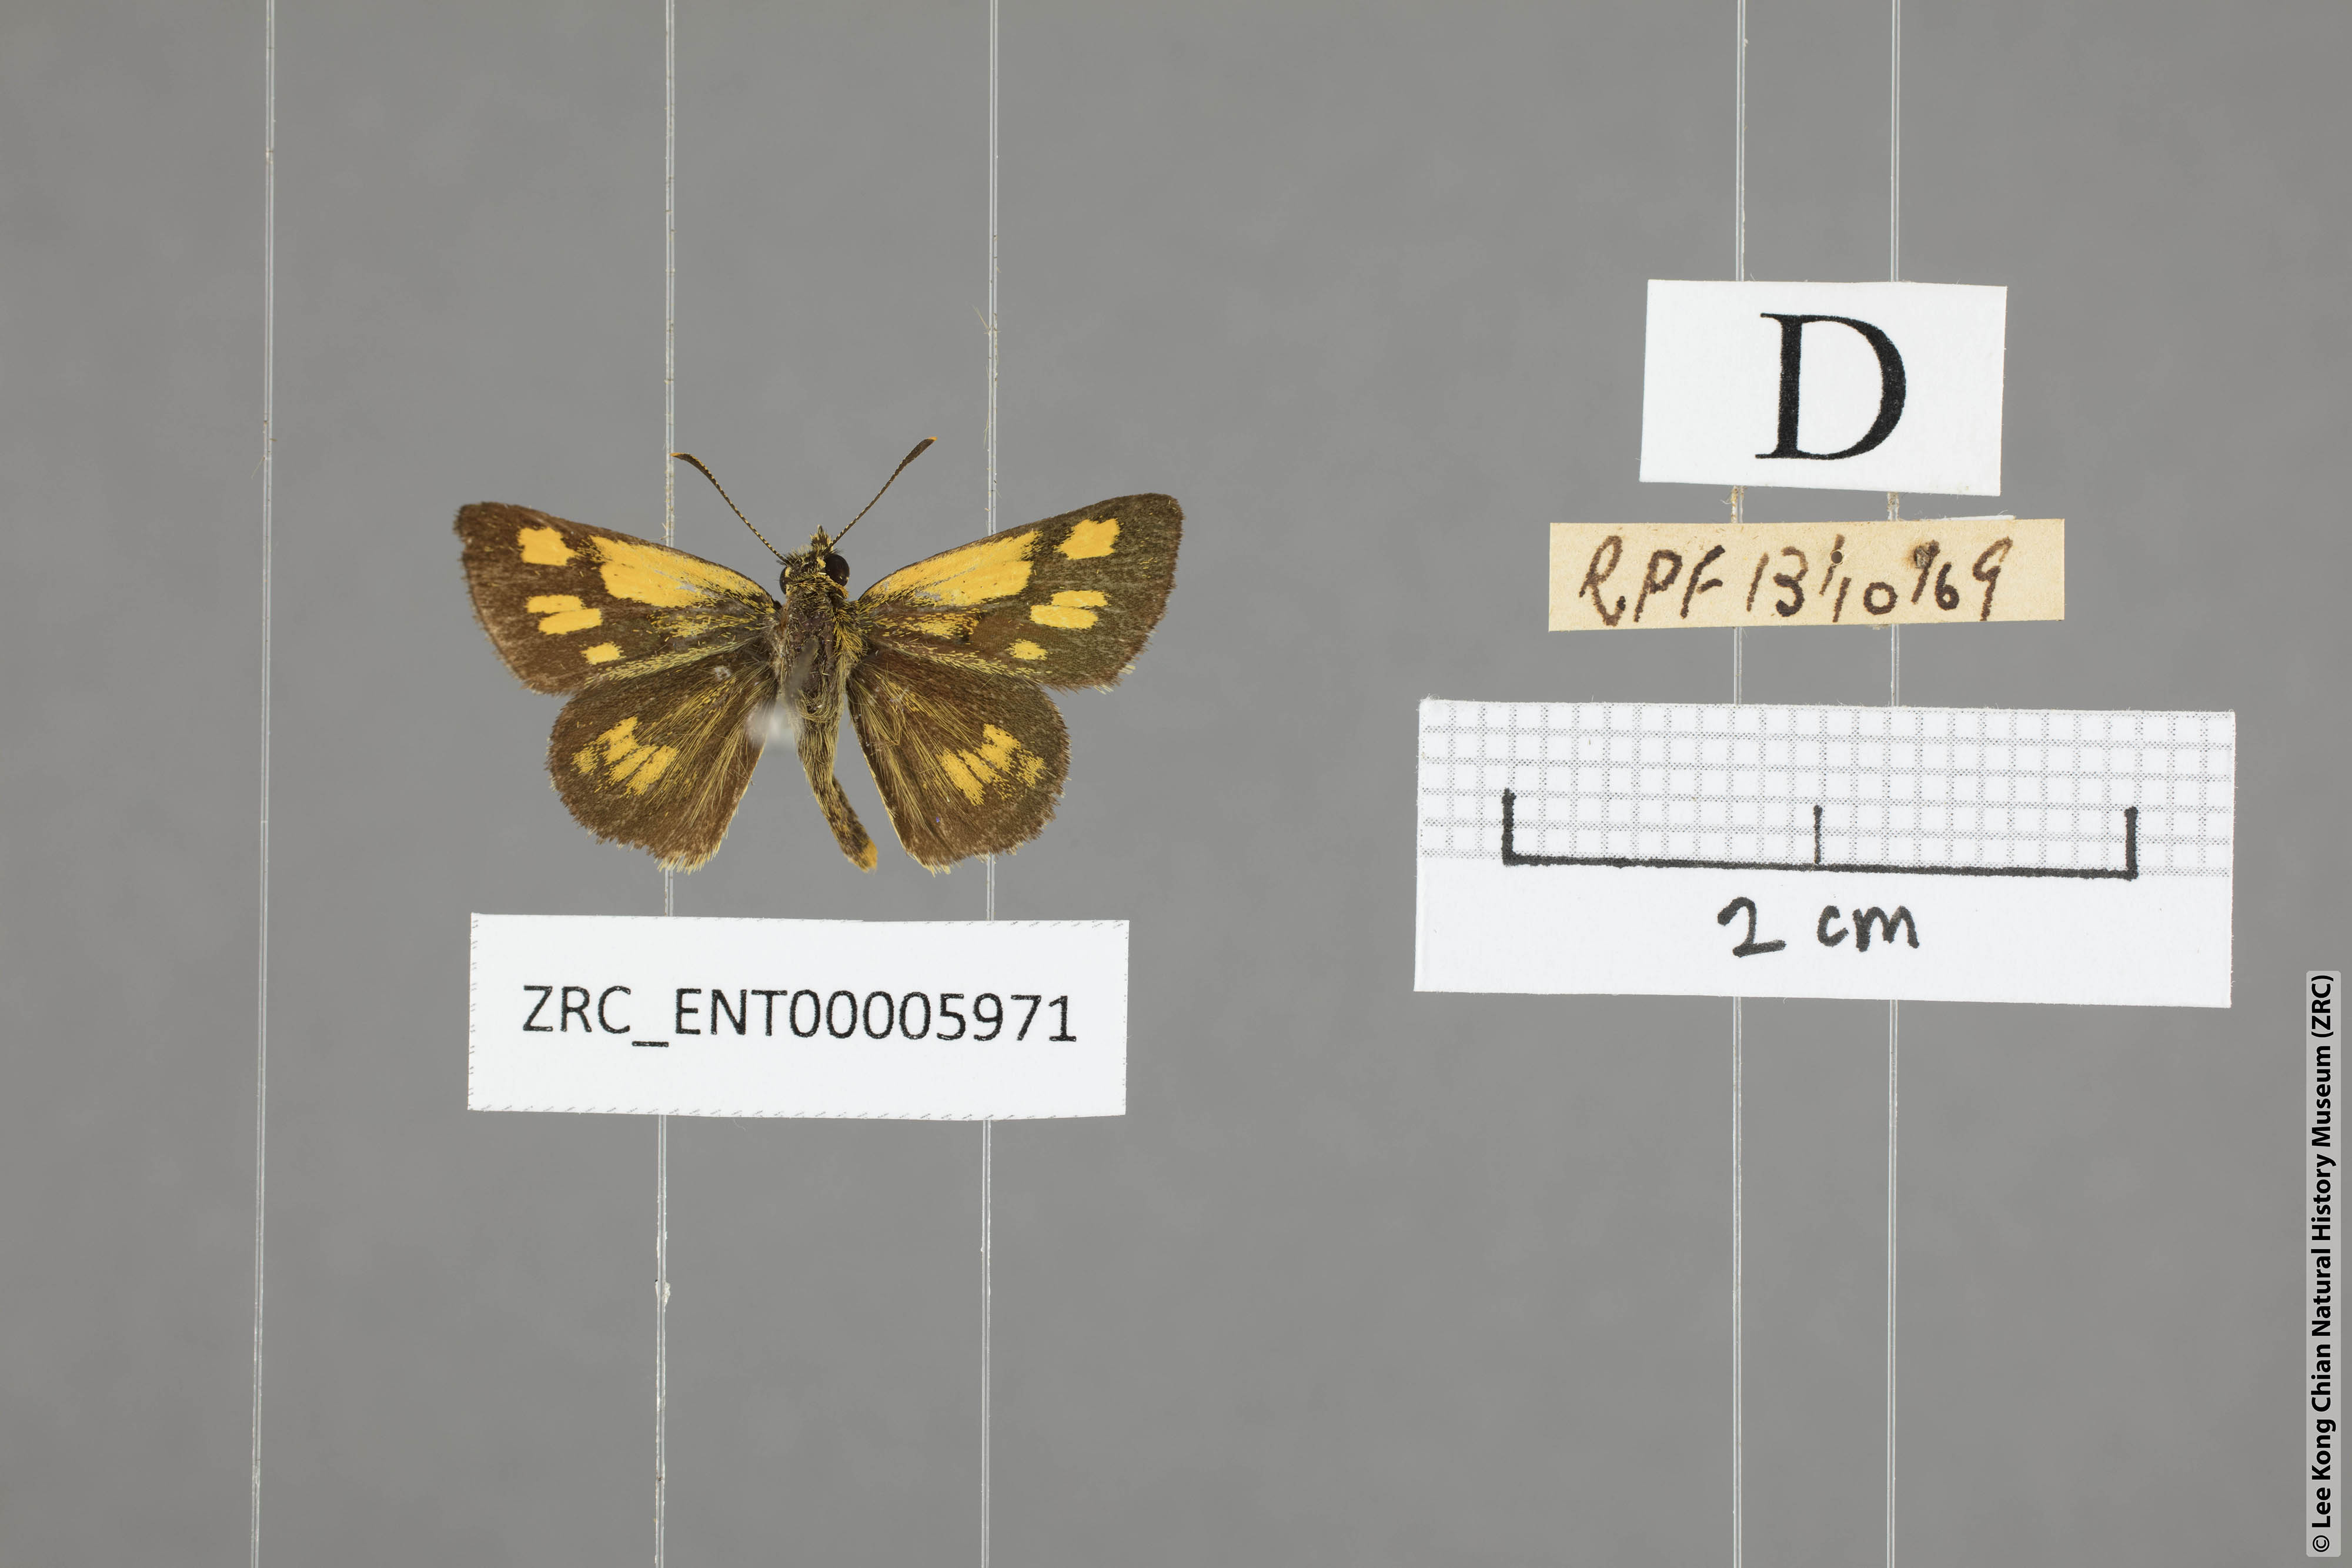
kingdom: Animalia
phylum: Arthropoda
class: Insecta
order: Lepidoptera
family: Hesperiidae
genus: Ampittia
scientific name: Ampittia dioscorides
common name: Common bush hopper
